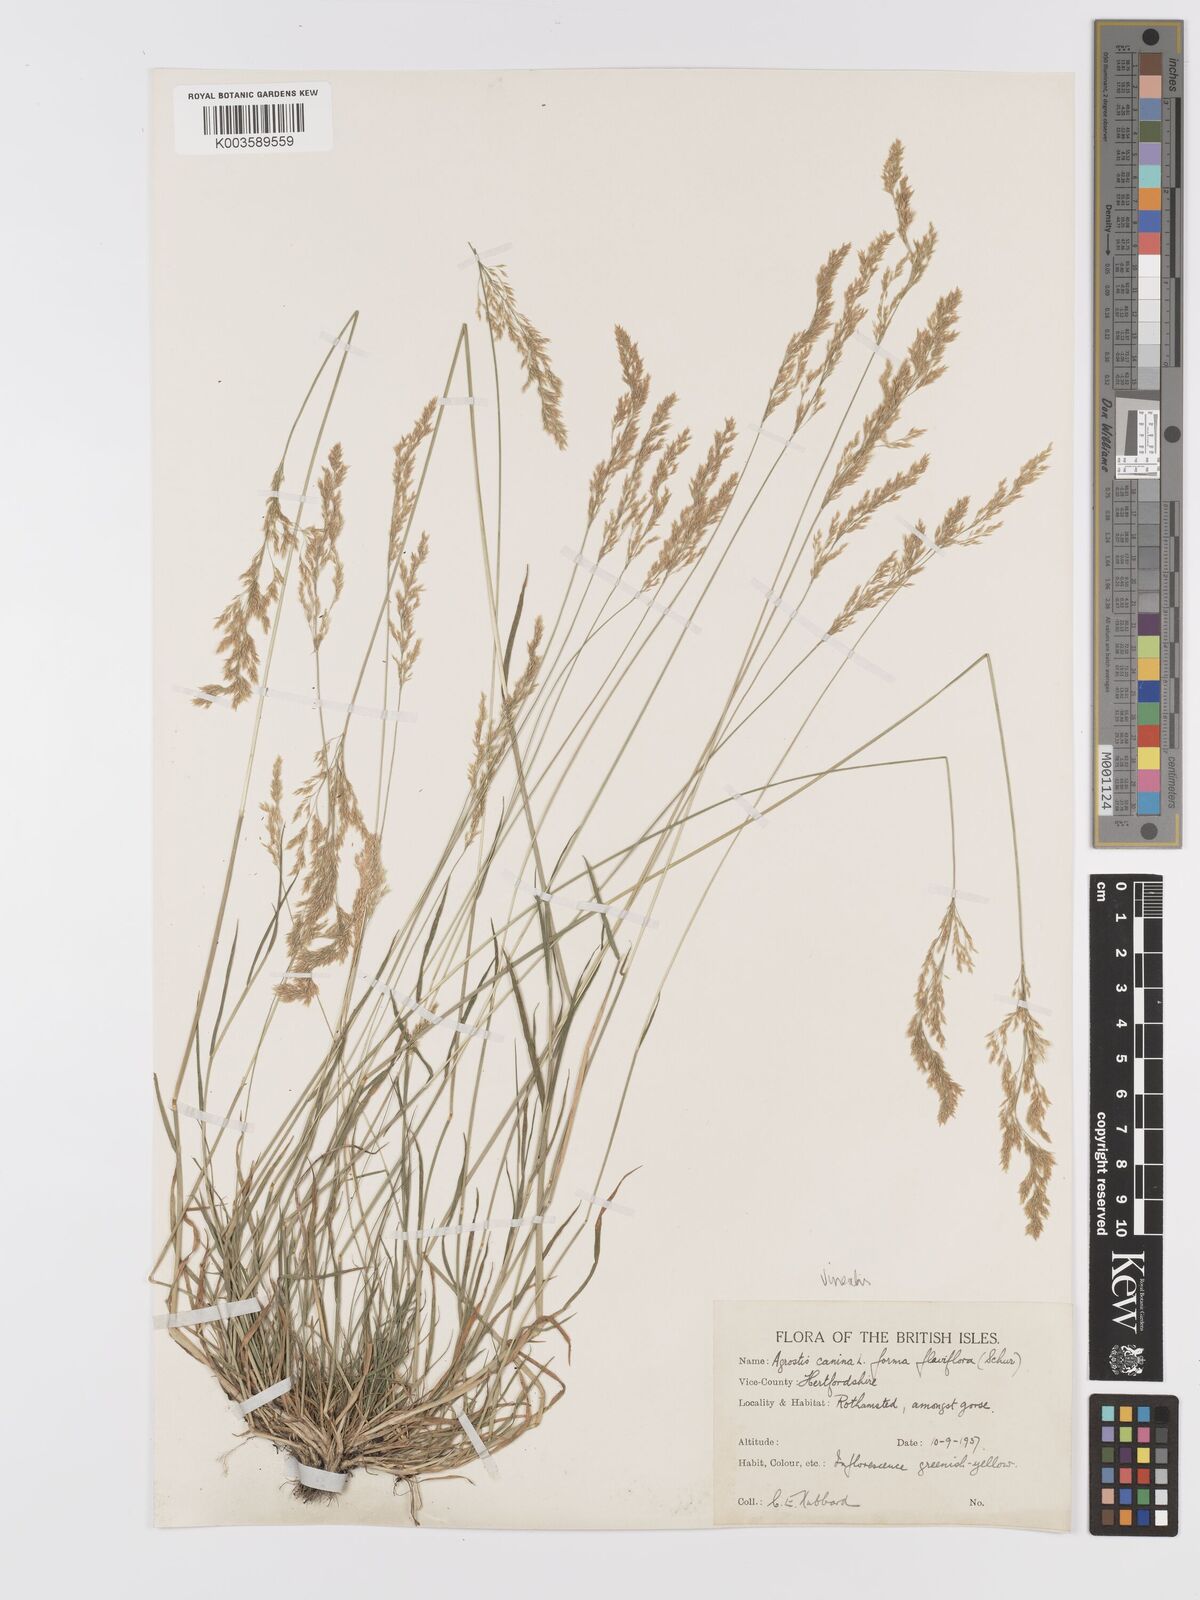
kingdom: Plantae
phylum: Tracheophyta
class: Liliopsida
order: Poales
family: Poaceae
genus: Agrostis
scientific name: Agrostis
